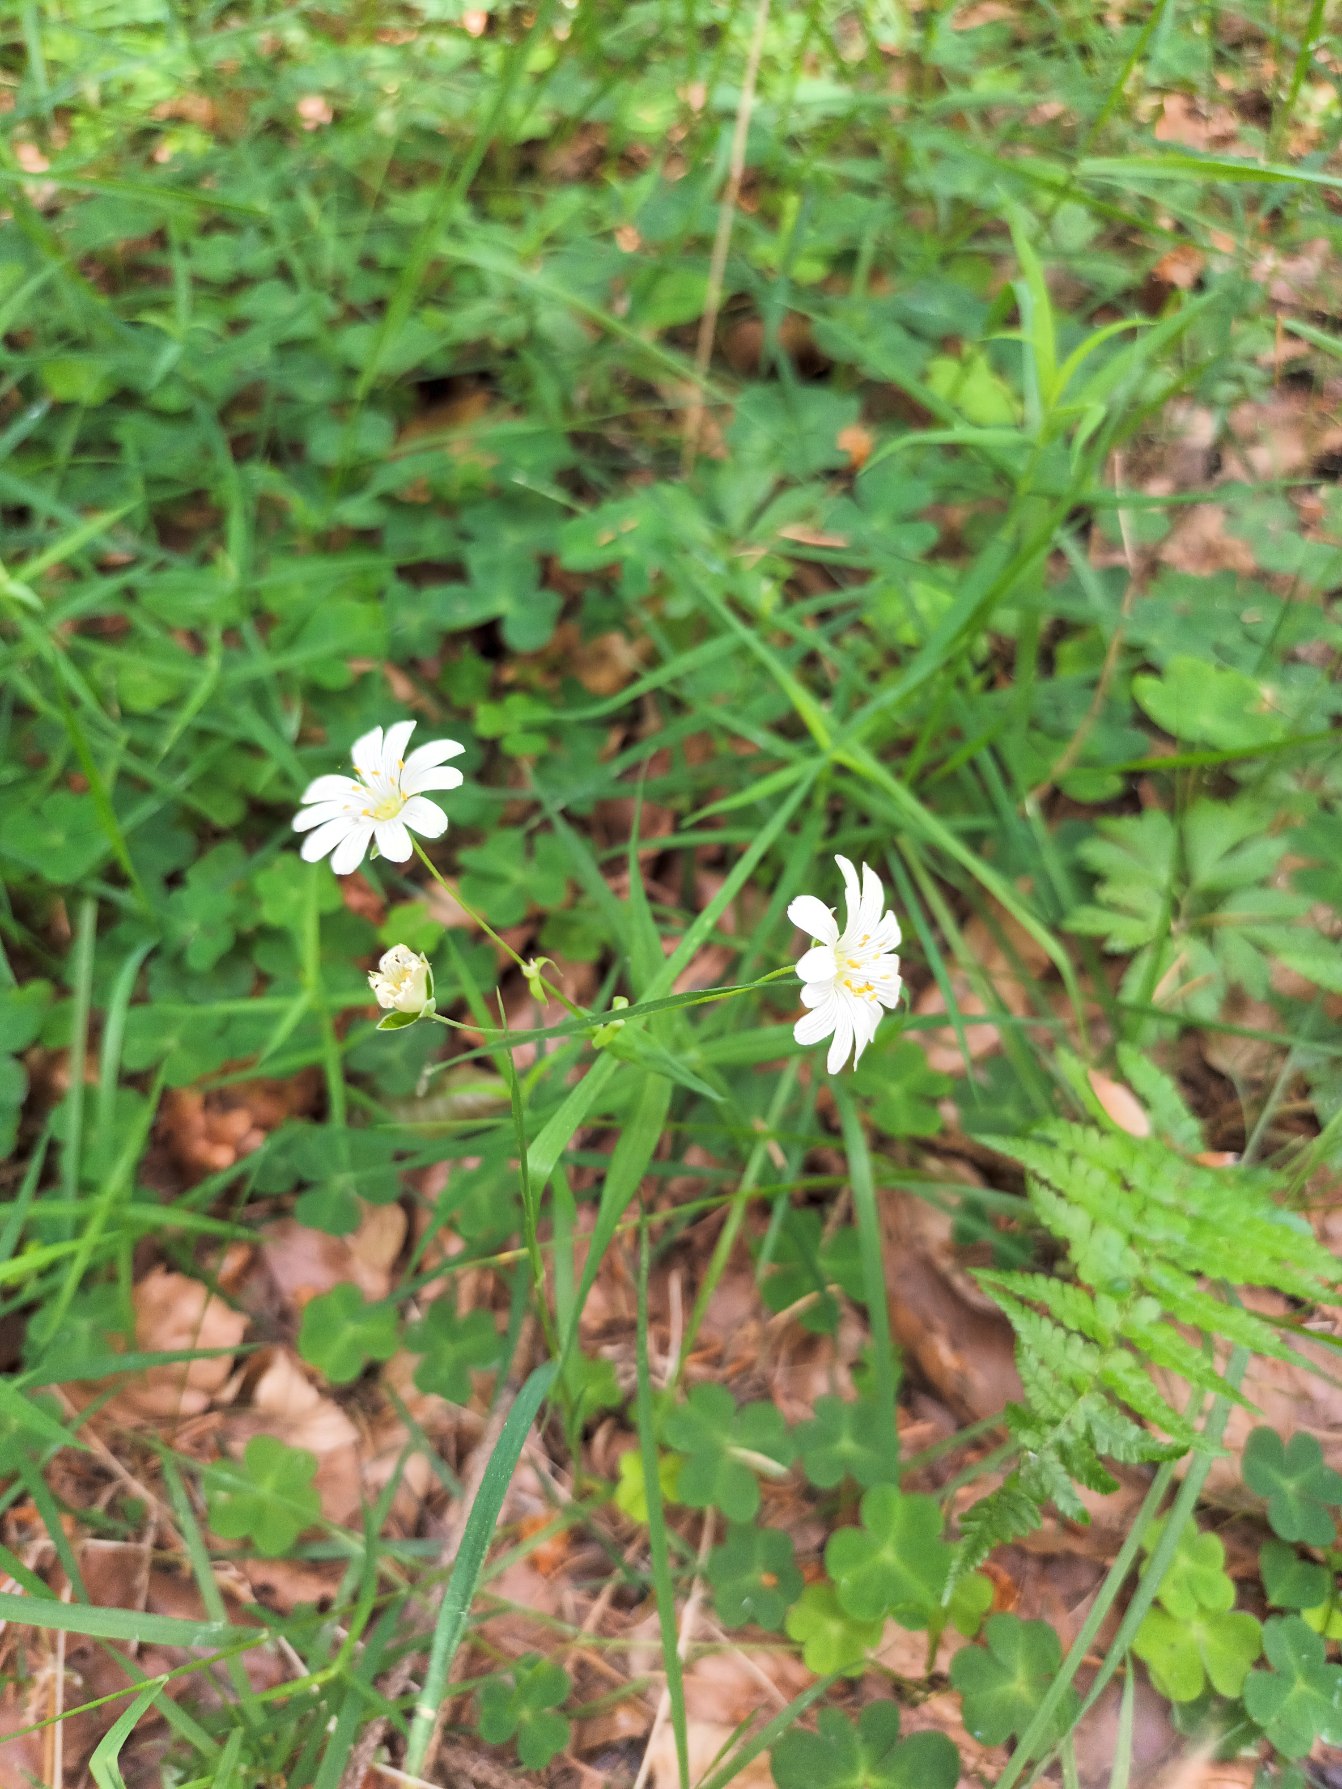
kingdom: Plantae
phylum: Tracheophyta
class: Magnoliopsida
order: Caryophyllales
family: Caryophyllaceae
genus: Rabelera
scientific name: Rabelera holostea
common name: Stor fladstjerne
